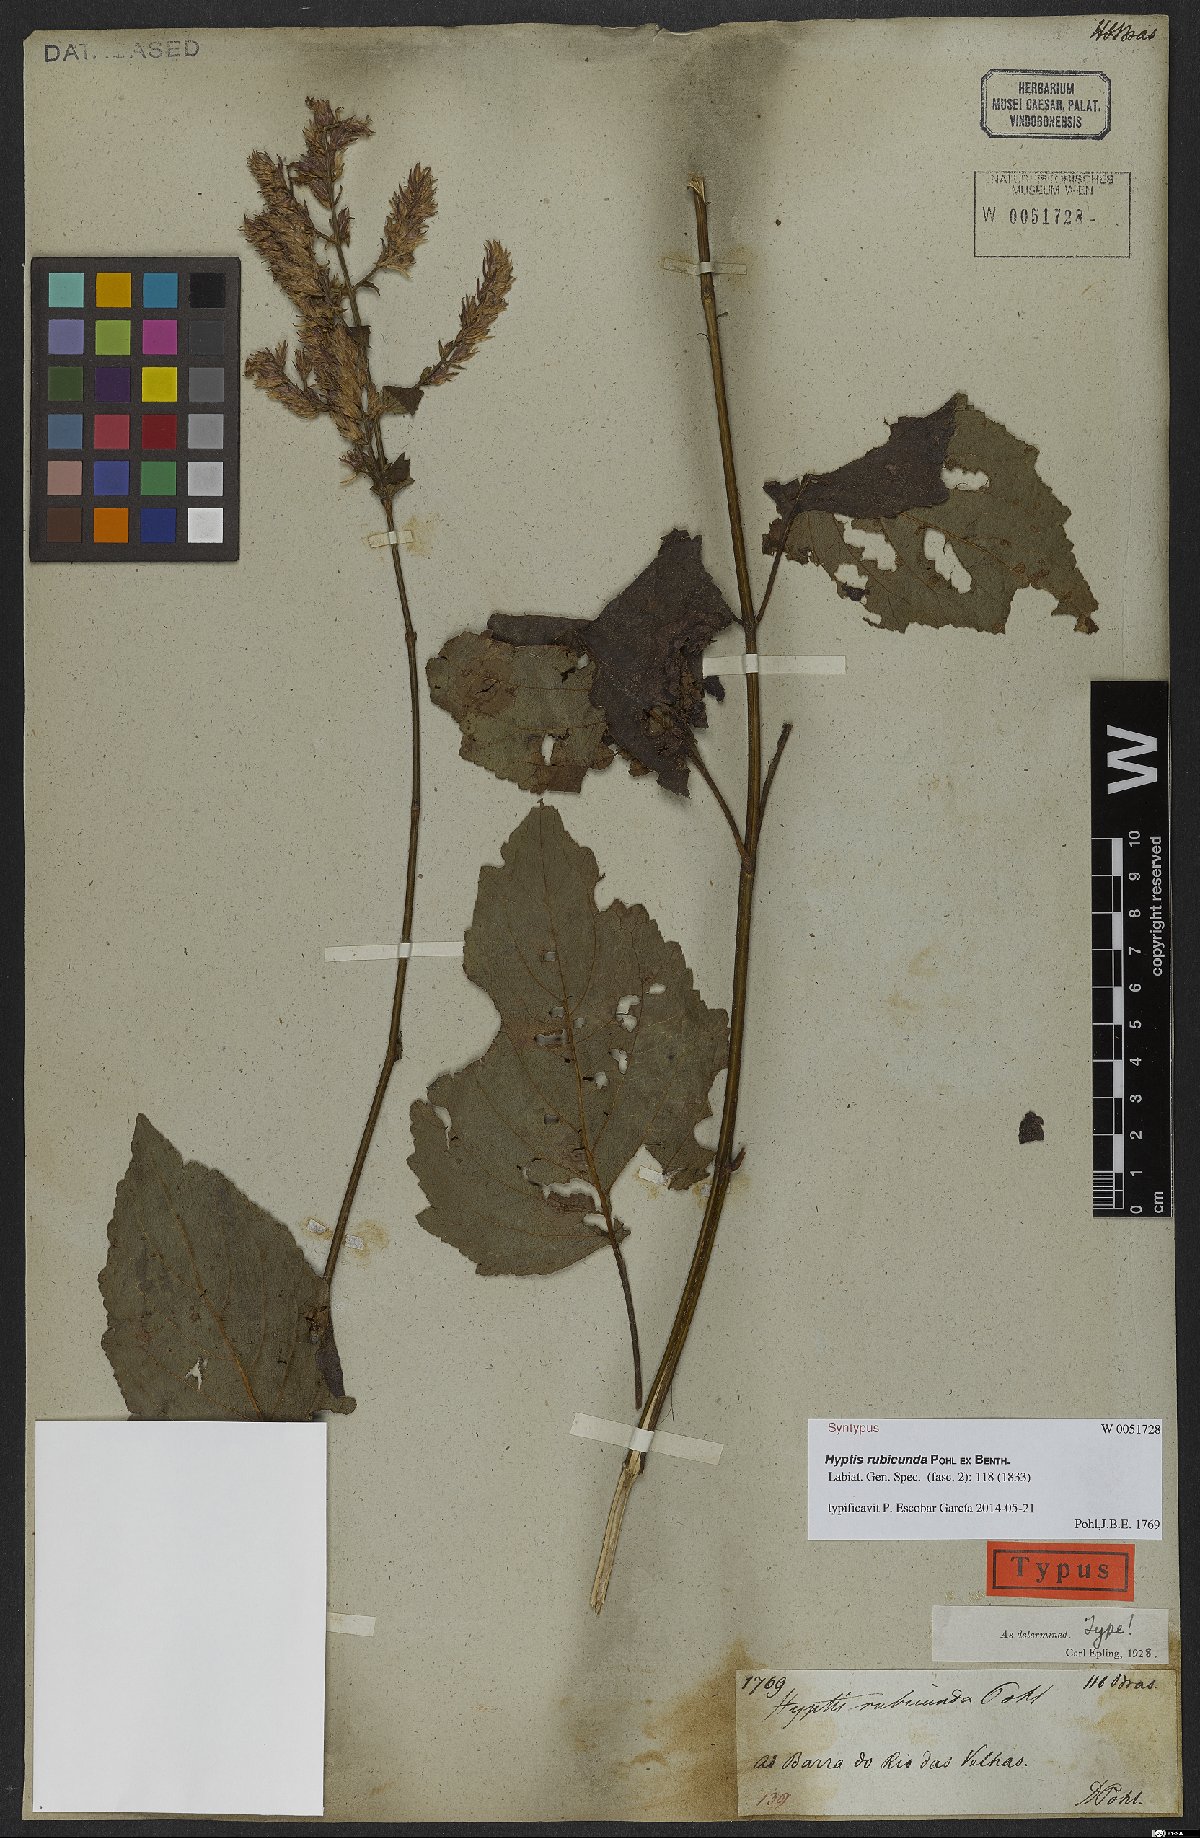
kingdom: Plantae
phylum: Tracheophyta
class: Magnoliopsida
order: Lamiales
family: Lamiaceae
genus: Cantinoa
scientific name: Cantinoa rubicunda
